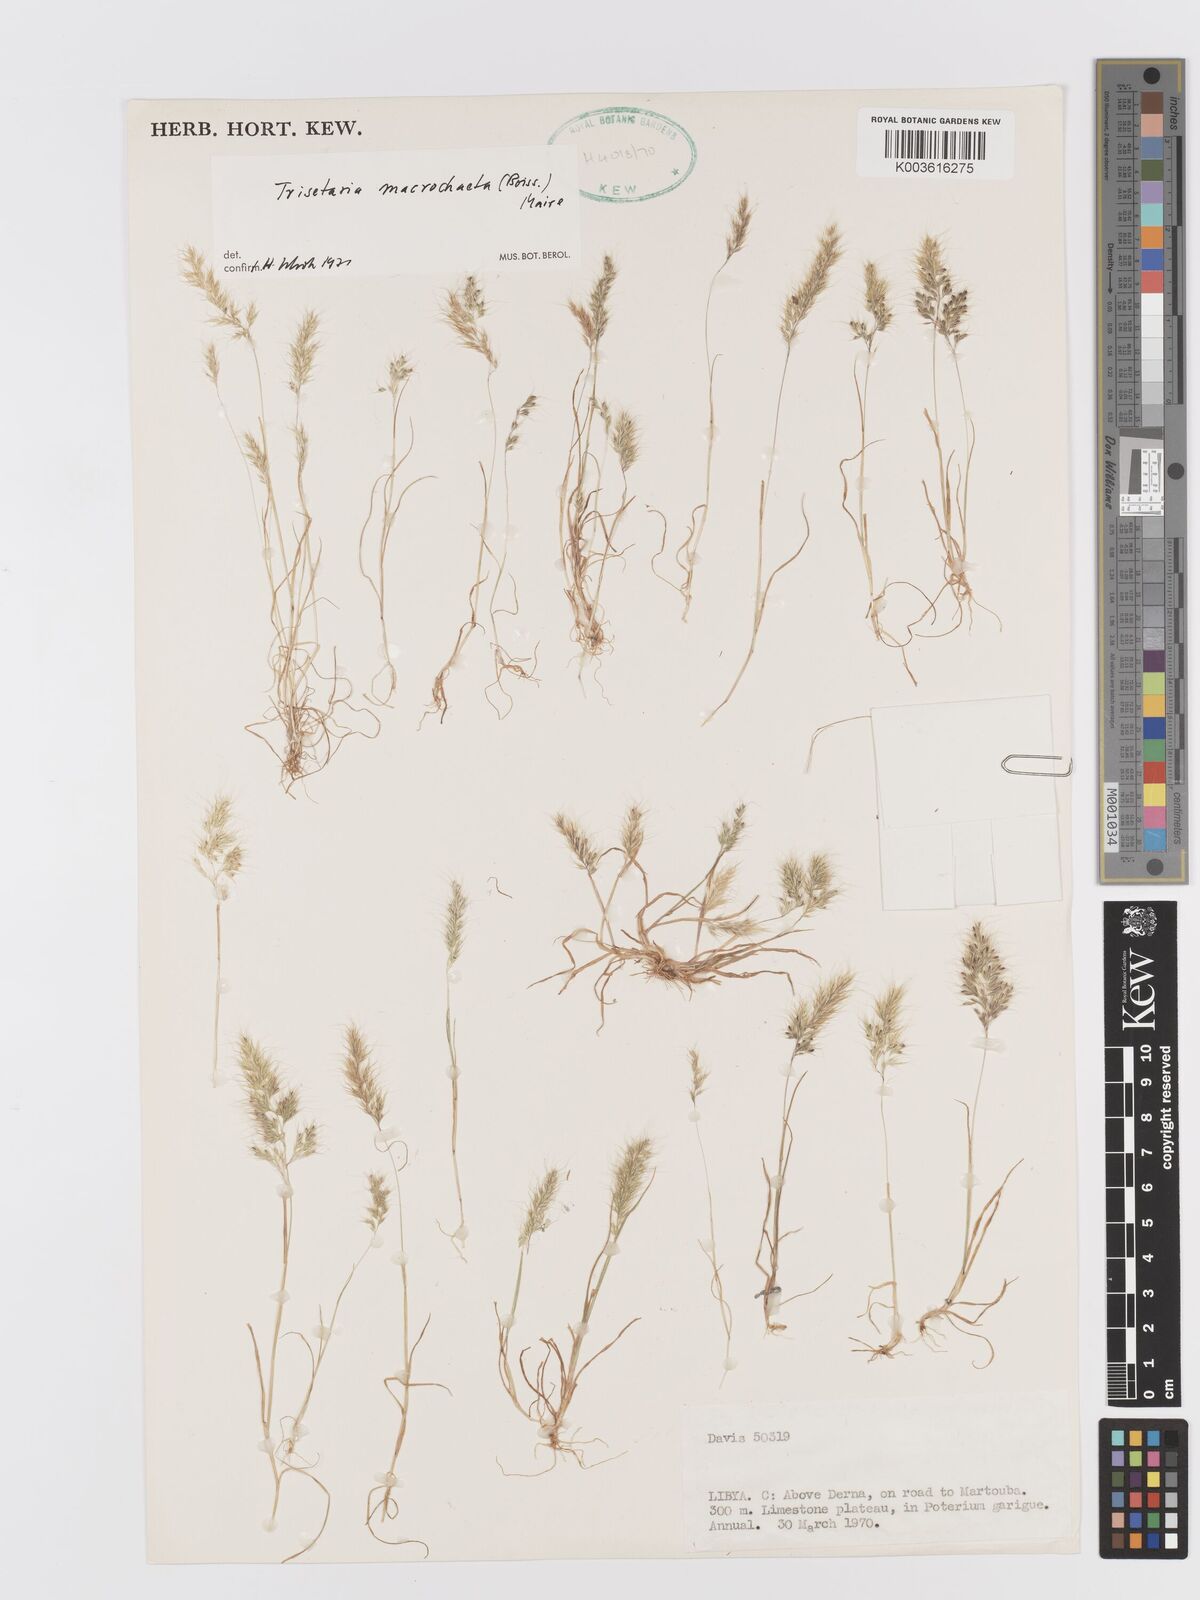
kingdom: Plantae
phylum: Tracheophyta
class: Liliopsida
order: Poales
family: Poaceae
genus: Trisetaria
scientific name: Trisetaria macrochaeta
